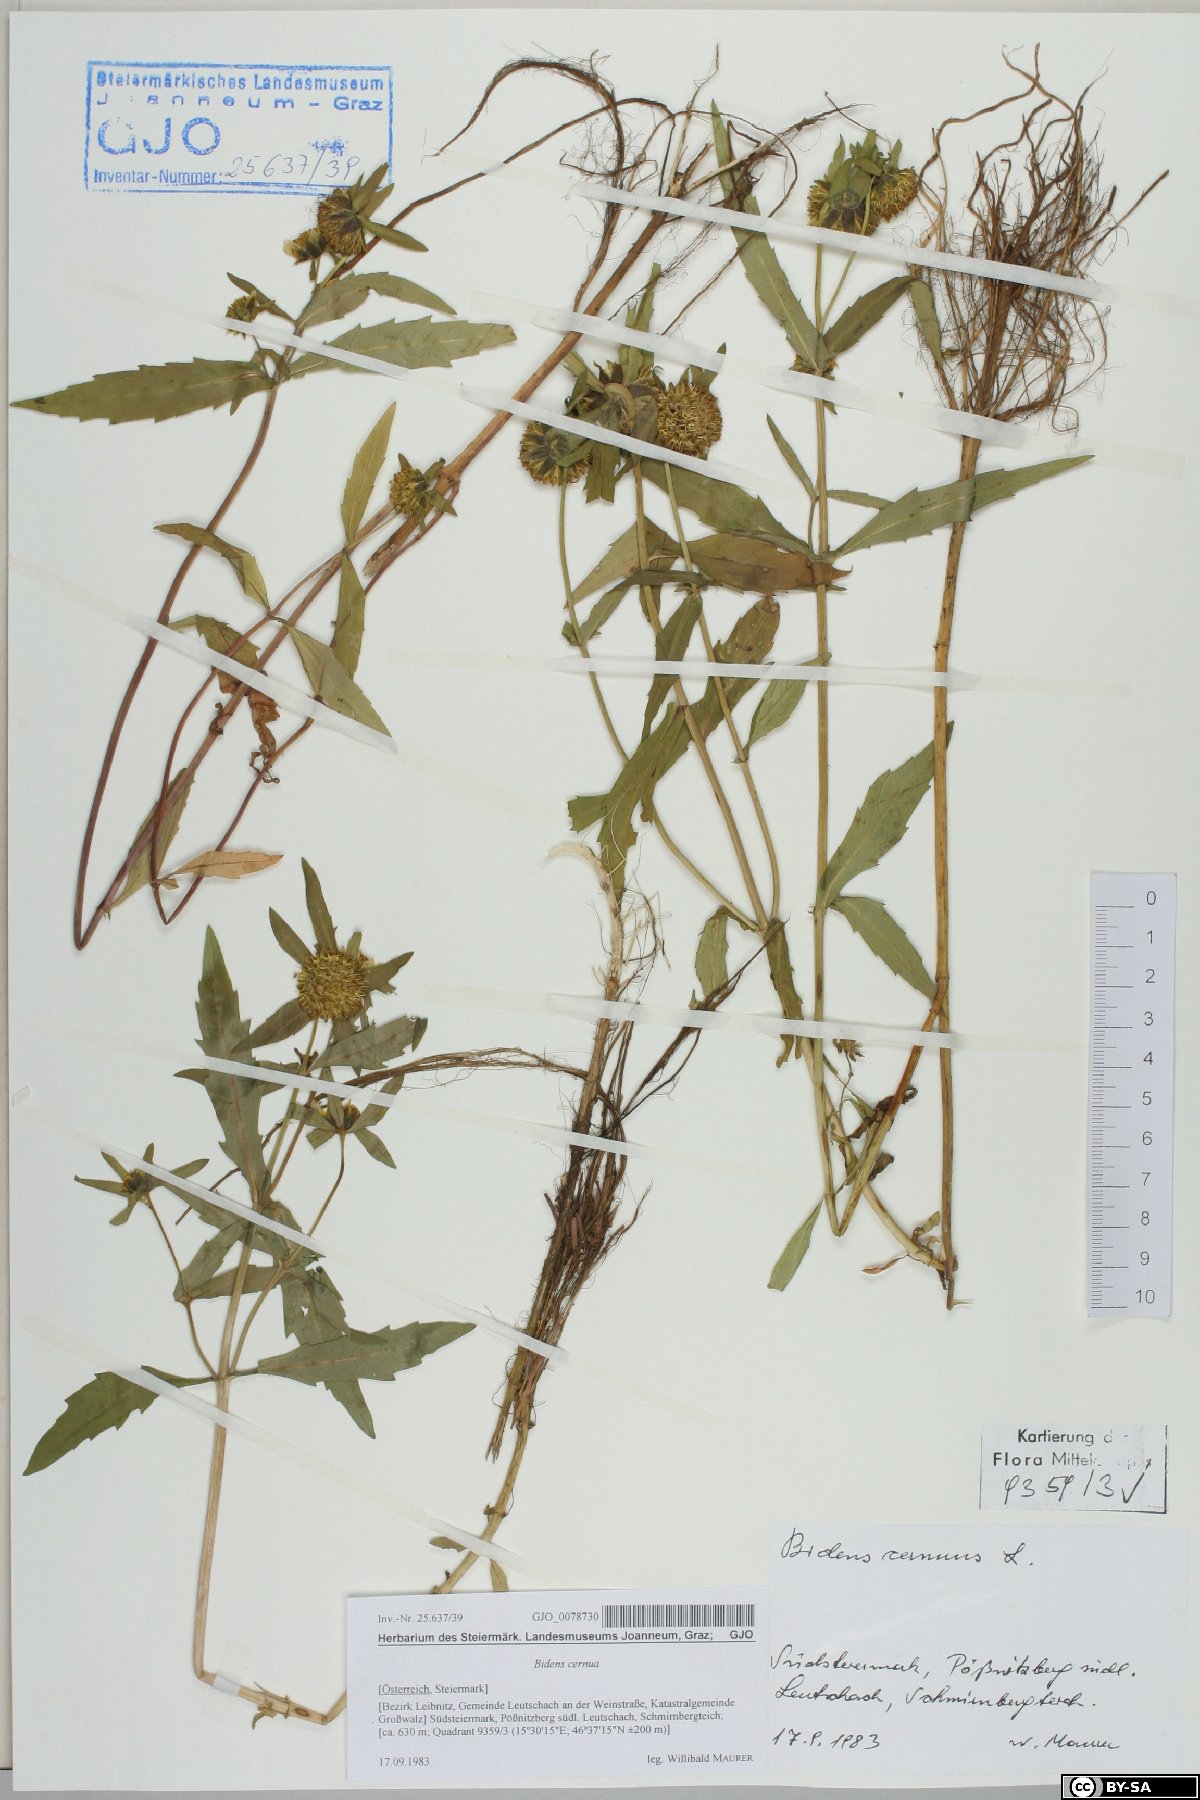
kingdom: Plantae
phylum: Tracheophyta
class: Magnoliopsida
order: Asterales
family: Asteraceae
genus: Bidens
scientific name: Bidens cernua
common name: Nodding bur-marigold
